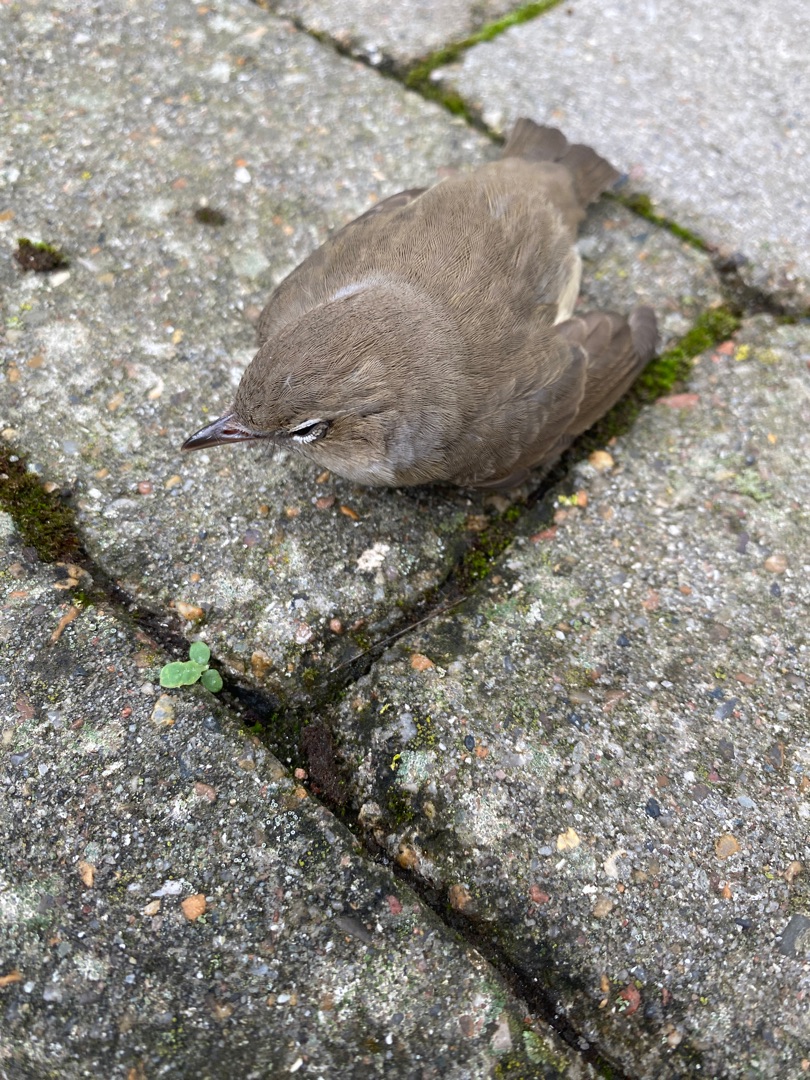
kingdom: Animalia
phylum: Chordata
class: Aves
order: Passeriformes
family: Sylviidae
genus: Sylvia
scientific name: Sylvia borin
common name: Havesanger
